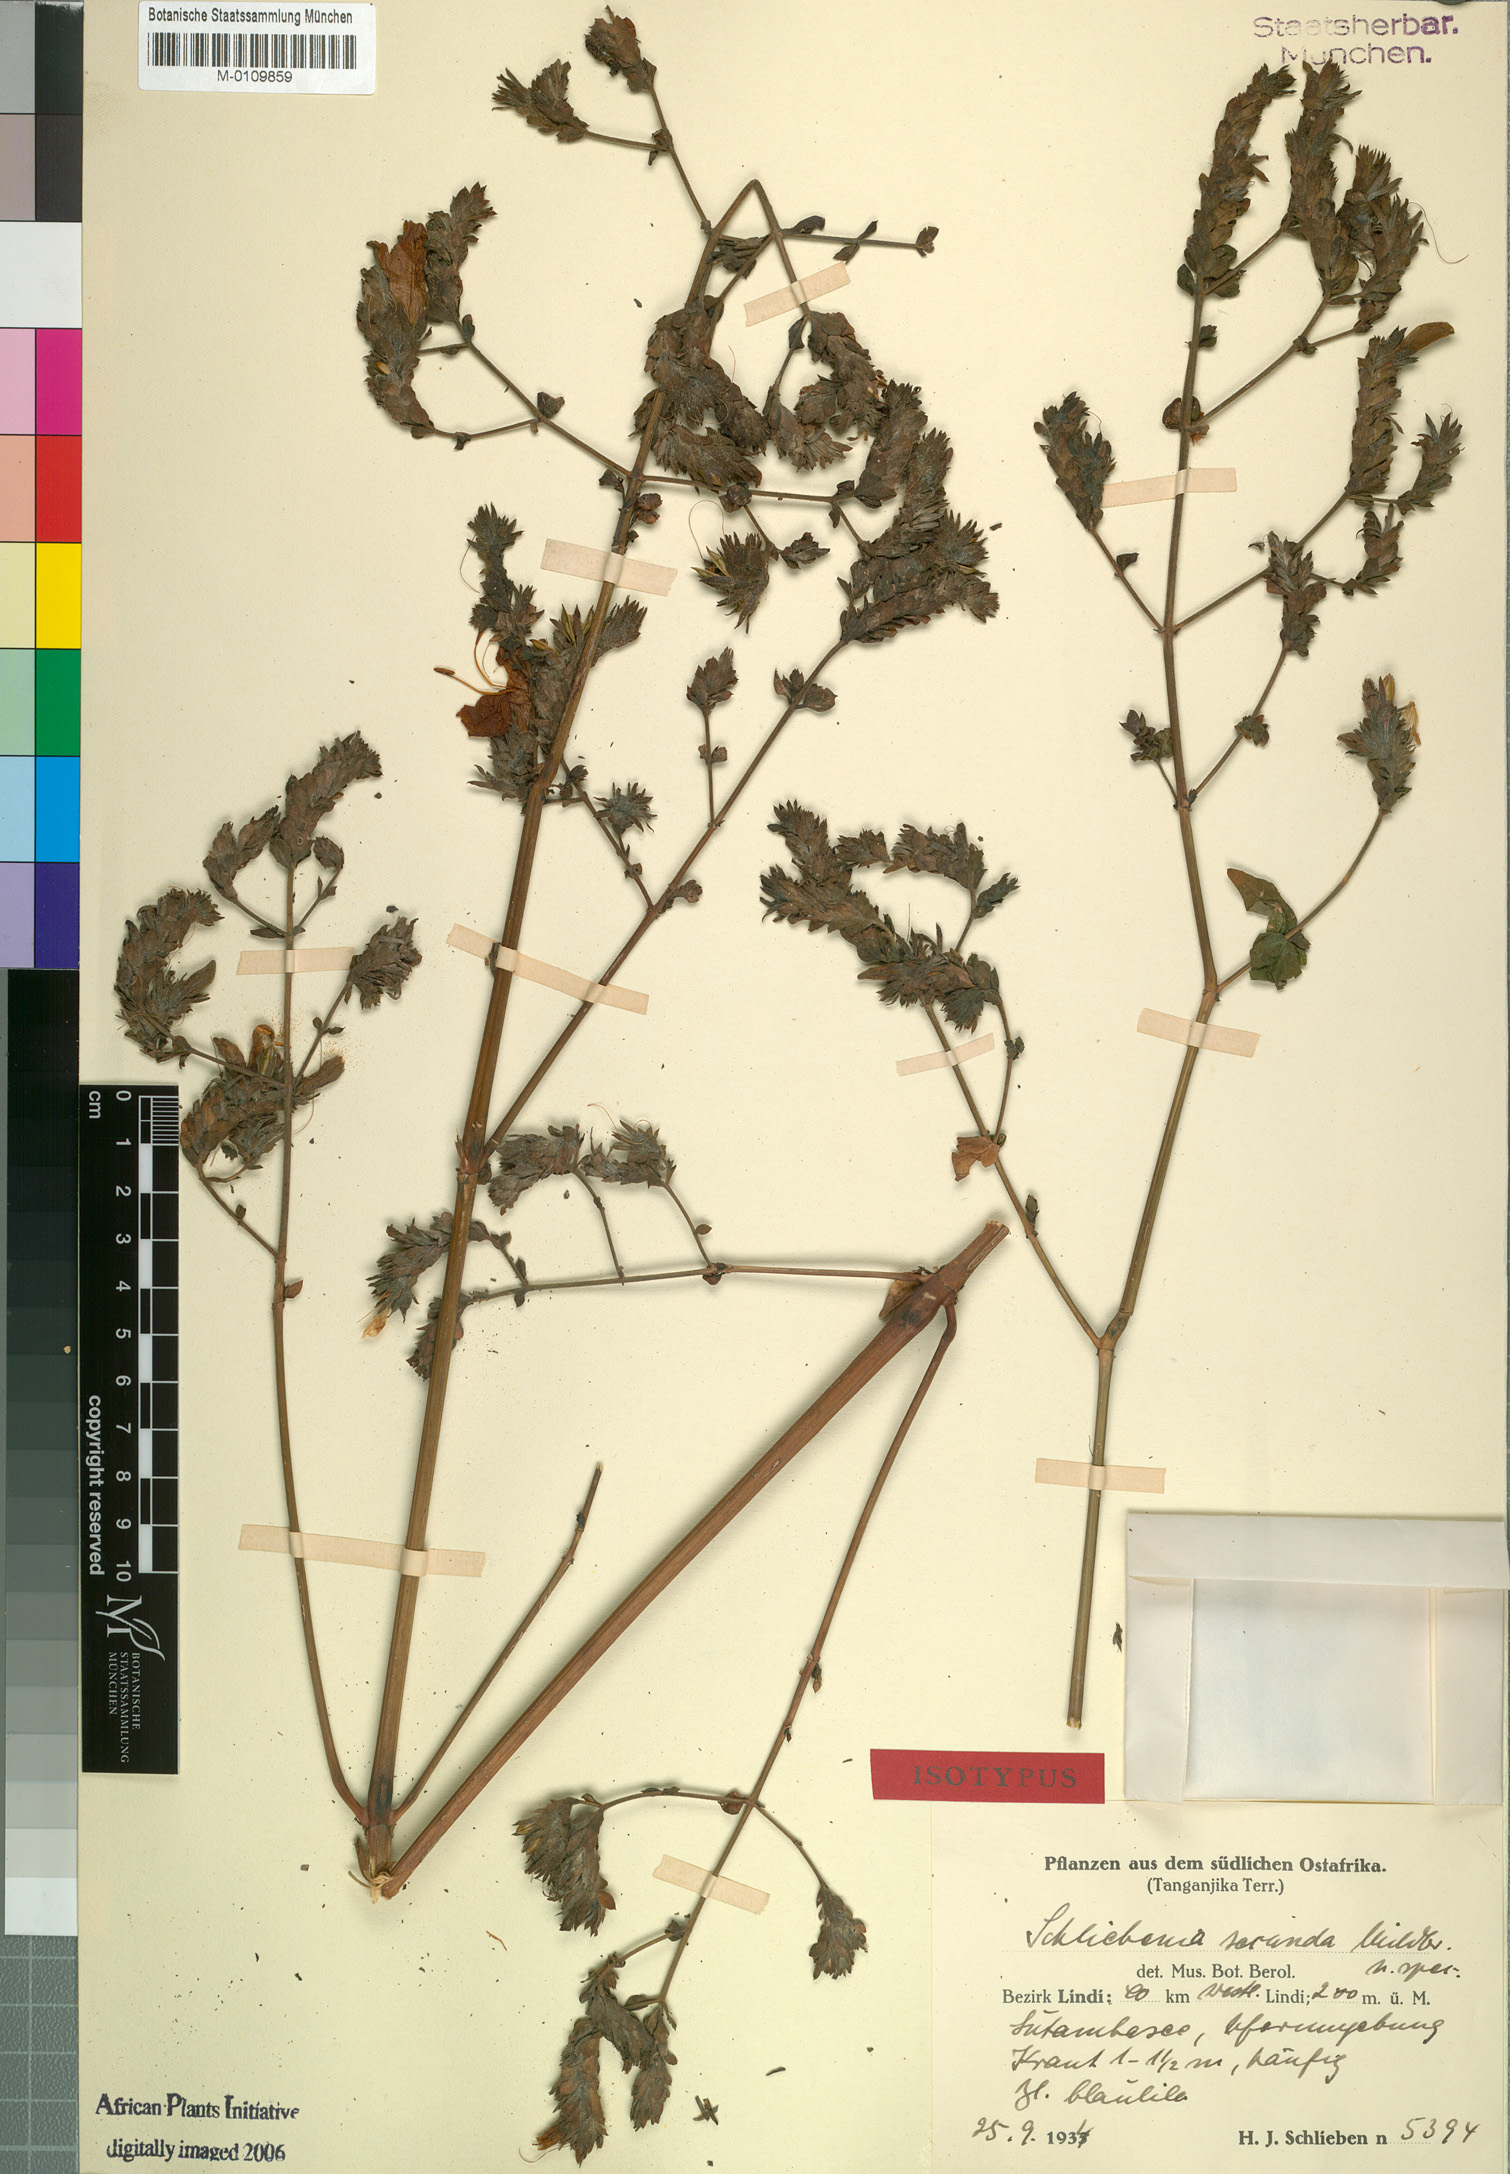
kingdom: Plantae
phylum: Tracheophyta
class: Magnoliopsida
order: Lamiales
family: Acanthaceae
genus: Isoglossa
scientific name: Isoglossa floribunda
